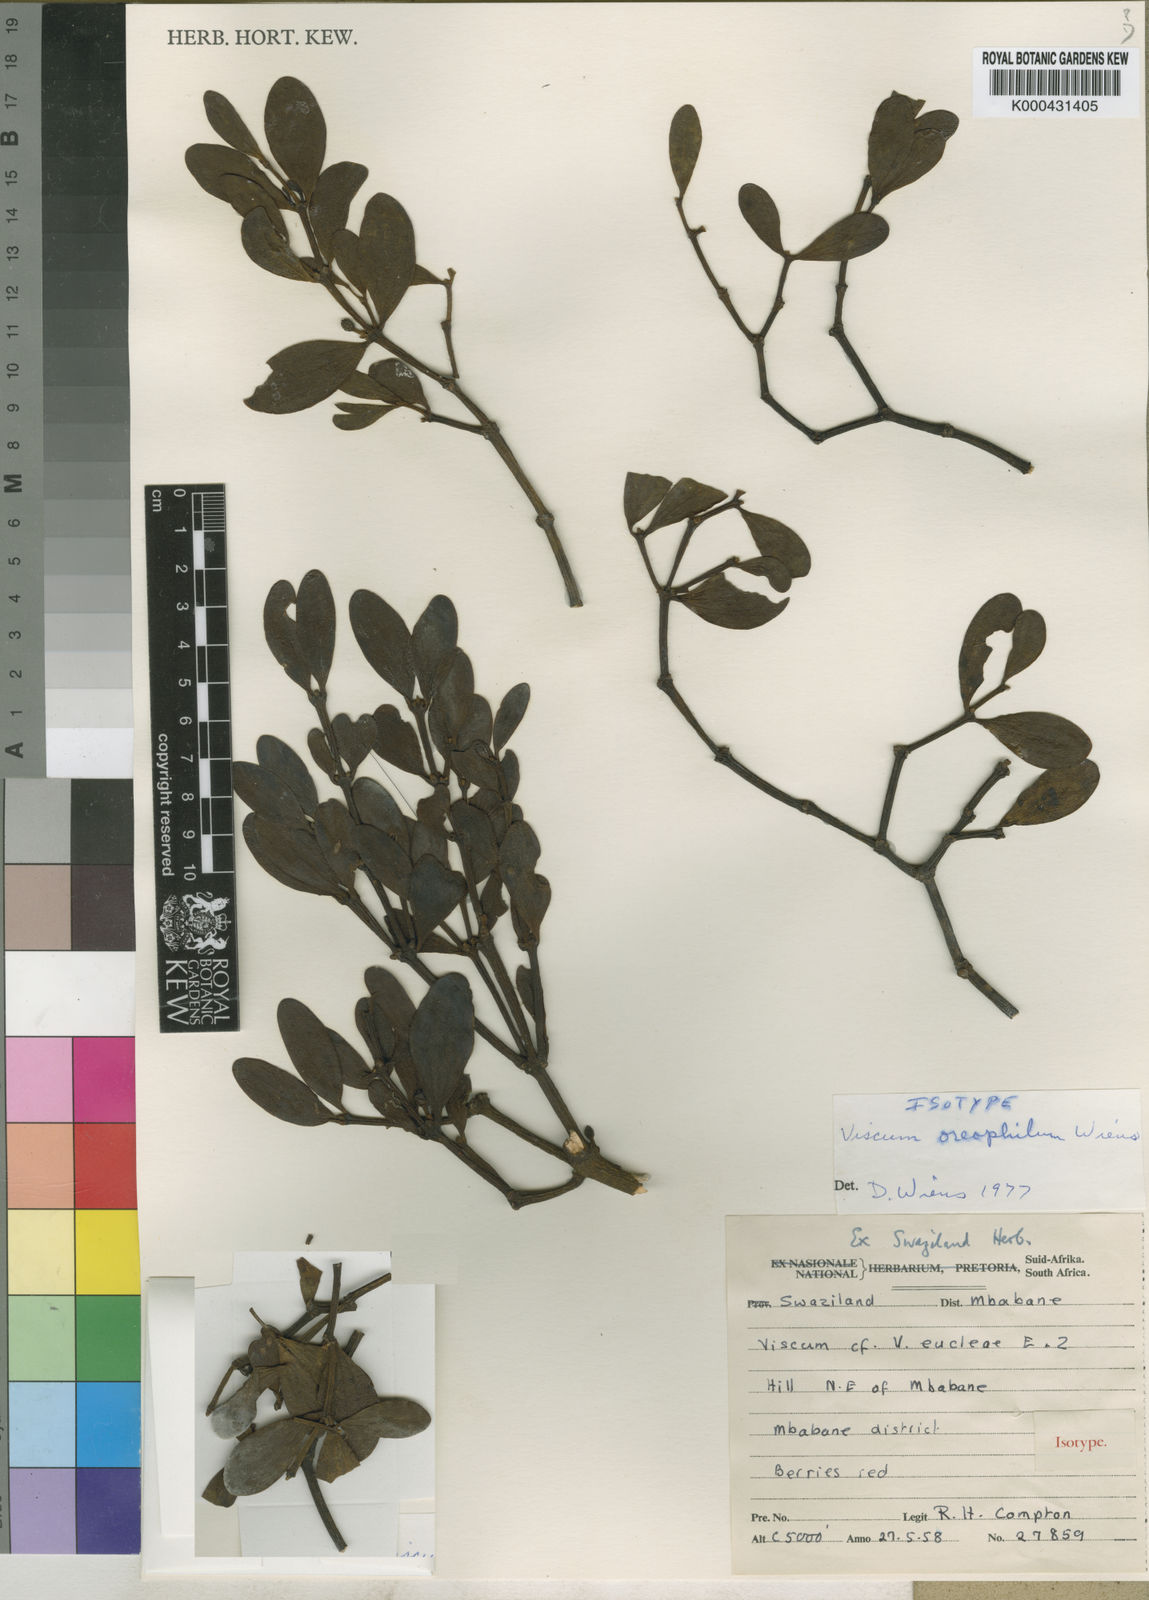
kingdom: Plantae
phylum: Tracheophyta
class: Magnoliopsida
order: Santalales
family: Viscaceae
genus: Viscum
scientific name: Viscum oreophilum
